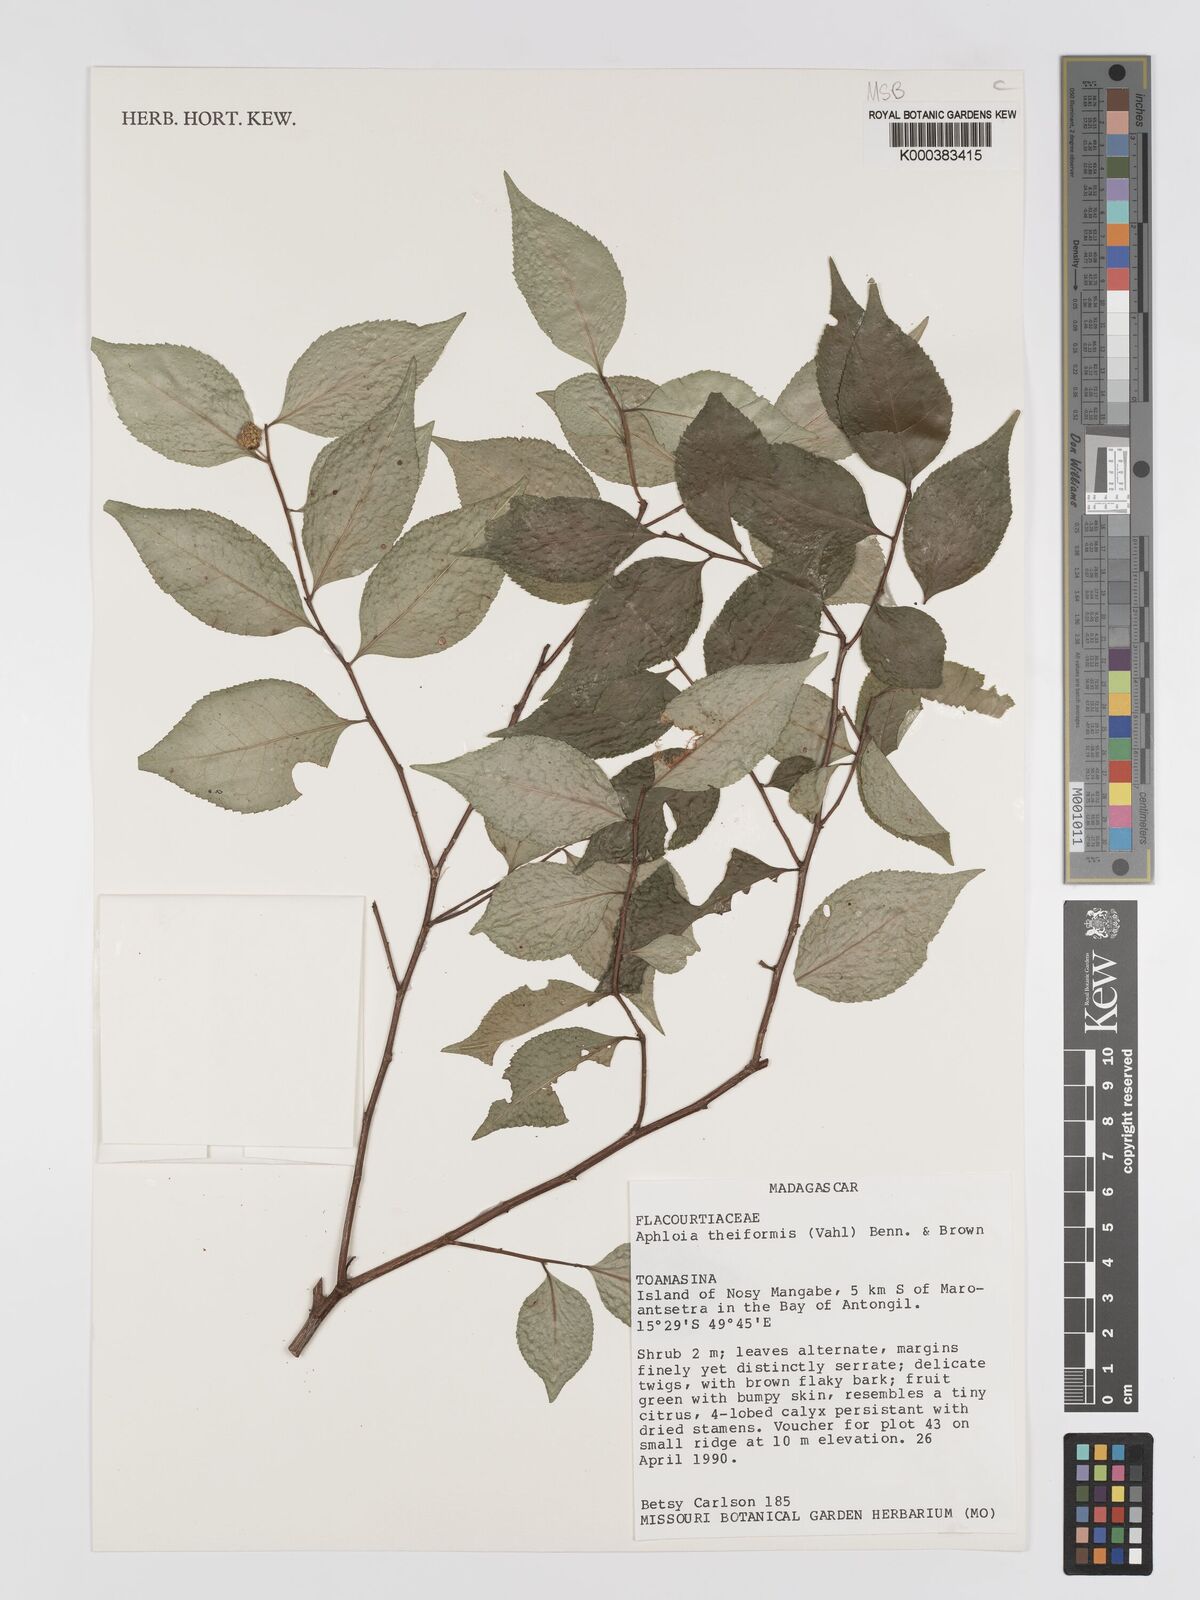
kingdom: Plantae
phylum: Tracheophyta
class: Magnoliopsida
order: Crossosomatales
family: Aphloiaceae
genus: Aphloia
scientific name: Aphloia theiformis
